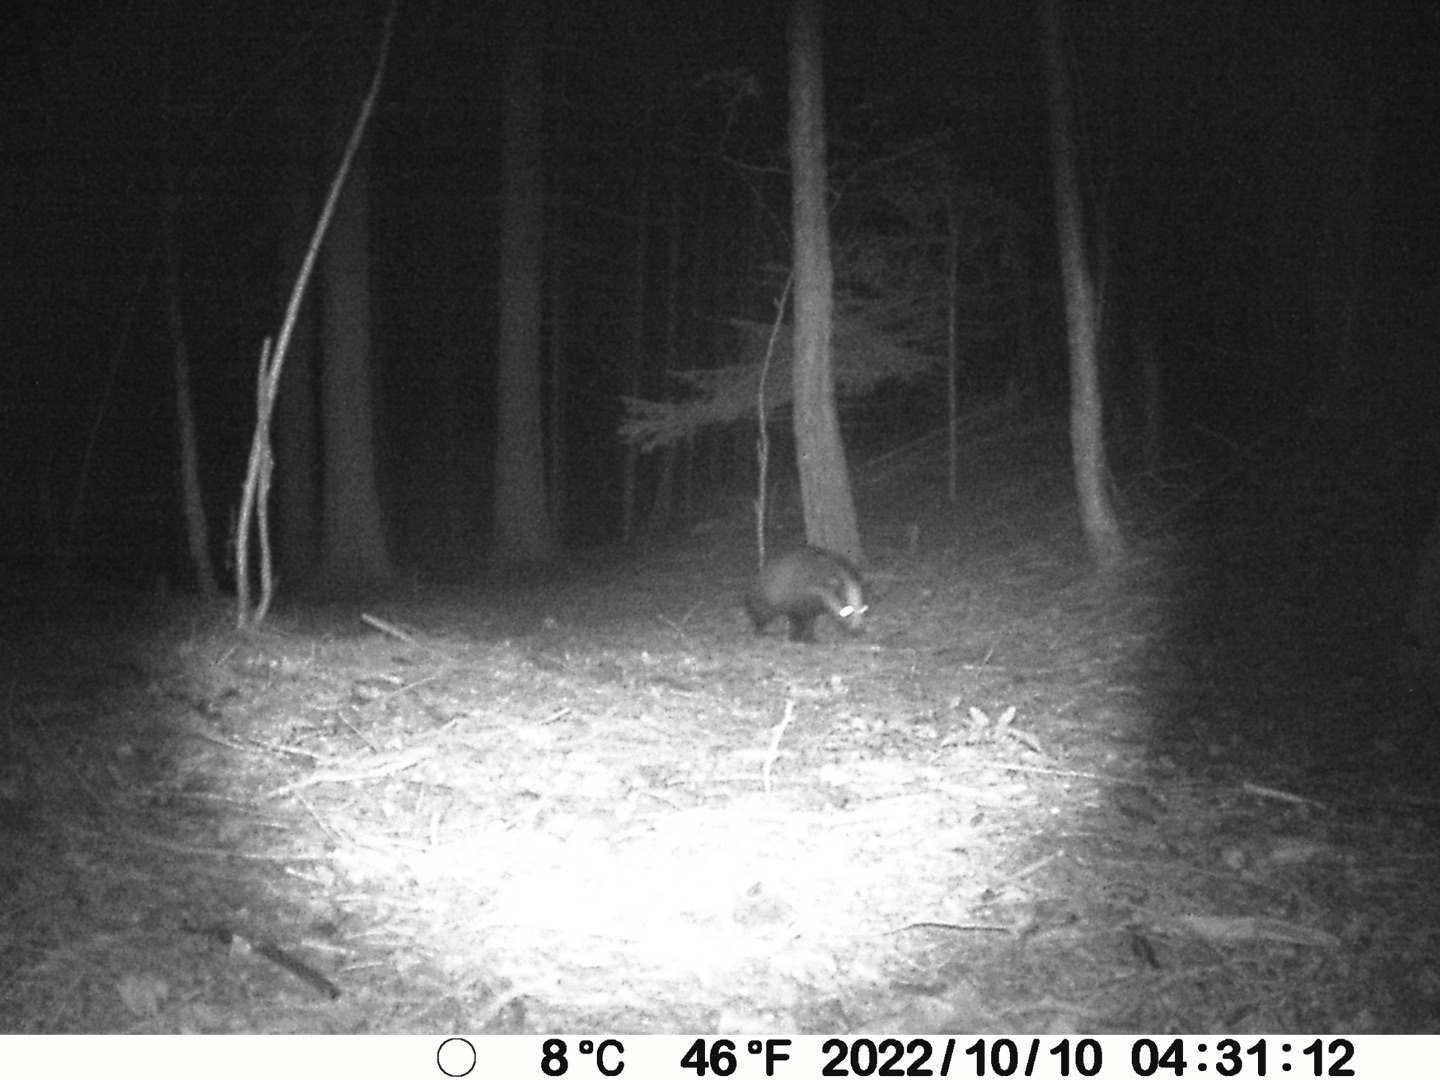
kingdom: Animalia
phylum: Chordata
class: Mammalia
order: Carnivora
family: Mustelidae
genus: Meles
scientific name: Meles meles
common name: Grævling
